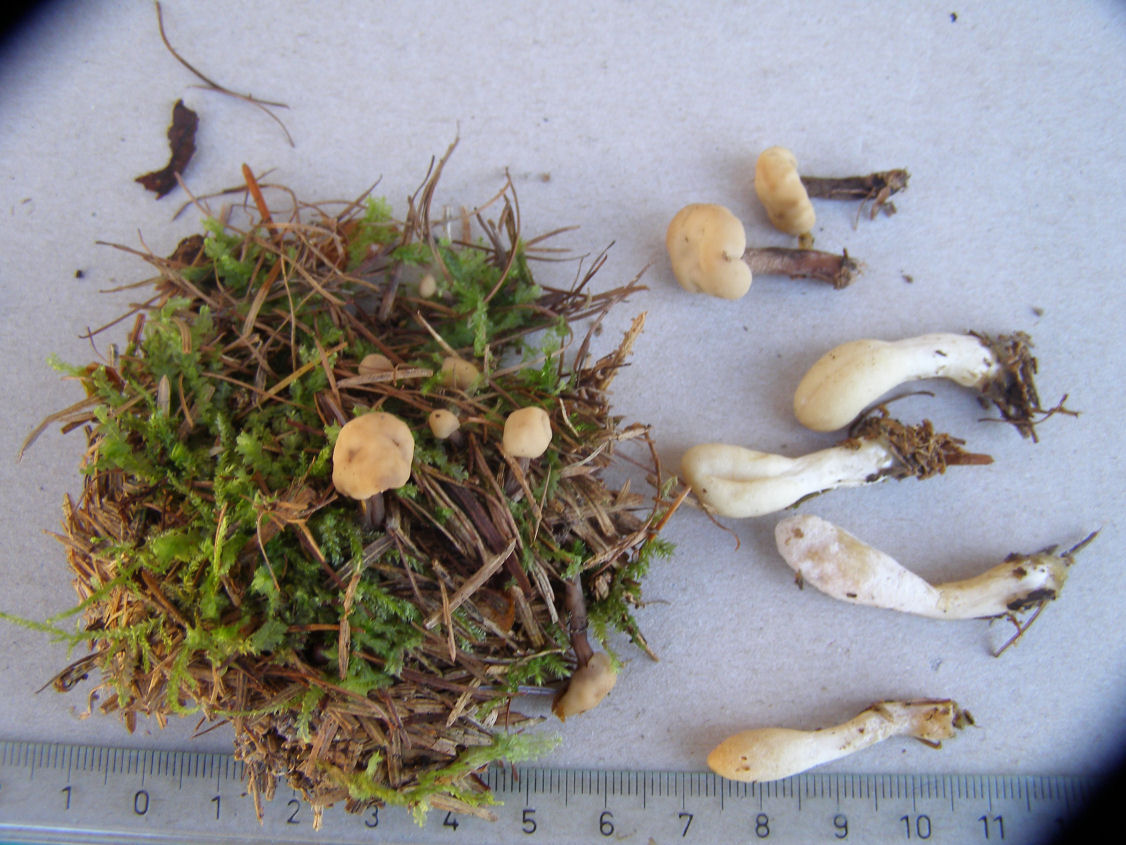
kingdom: Fungi
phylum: Ascomycota
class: Sordariomycetes
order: Hypocreales
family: Hypocreaceae
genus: Trichoderma
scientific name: Trichoderma leucopus
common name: lysstokket kødkerne
